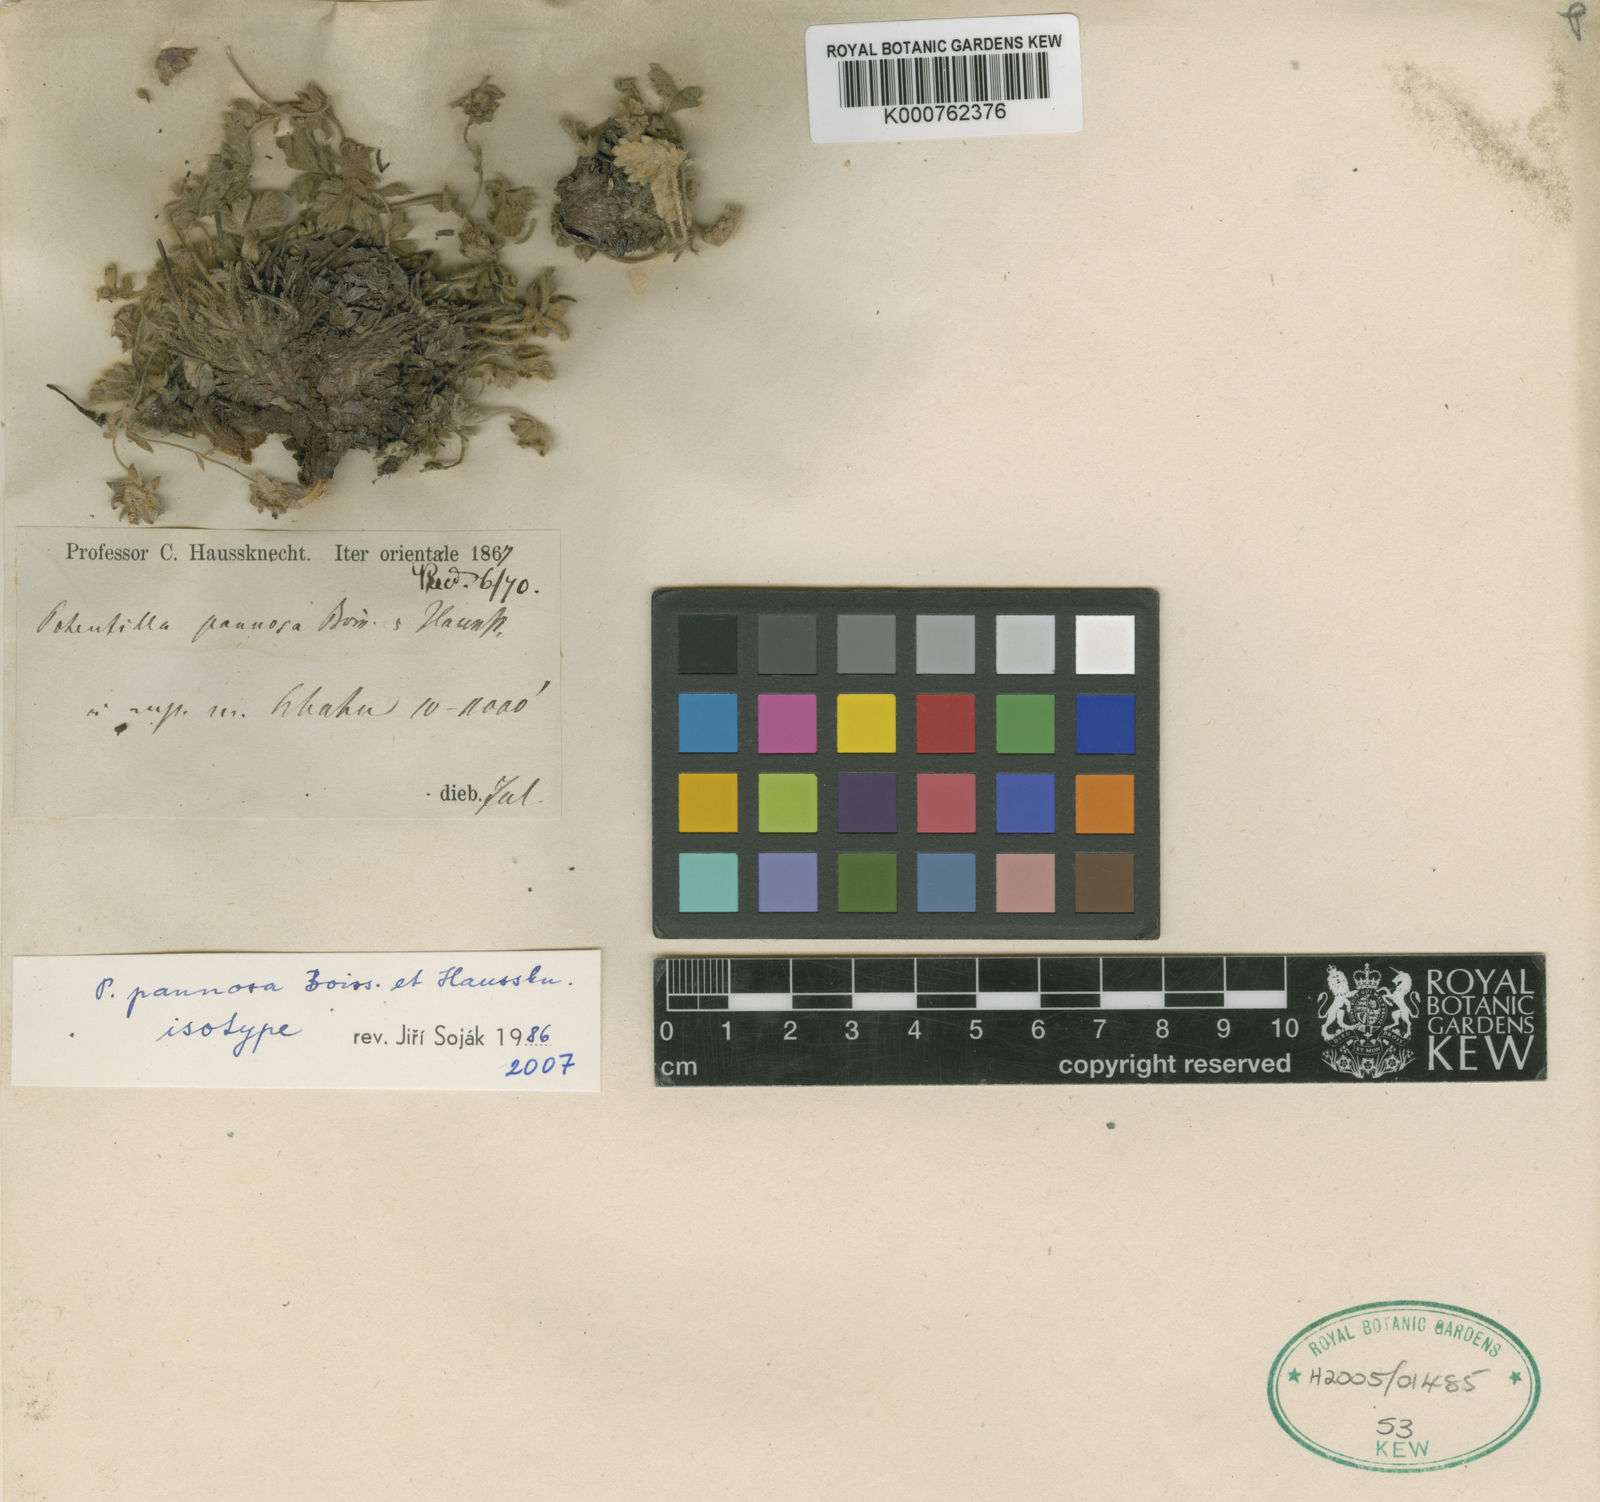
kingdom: Plantae
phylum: Tracheophyta
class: Magnoliopsida
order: Rosales
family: Rosaceae
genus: Potentilla
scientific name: Potentilla pannosa
